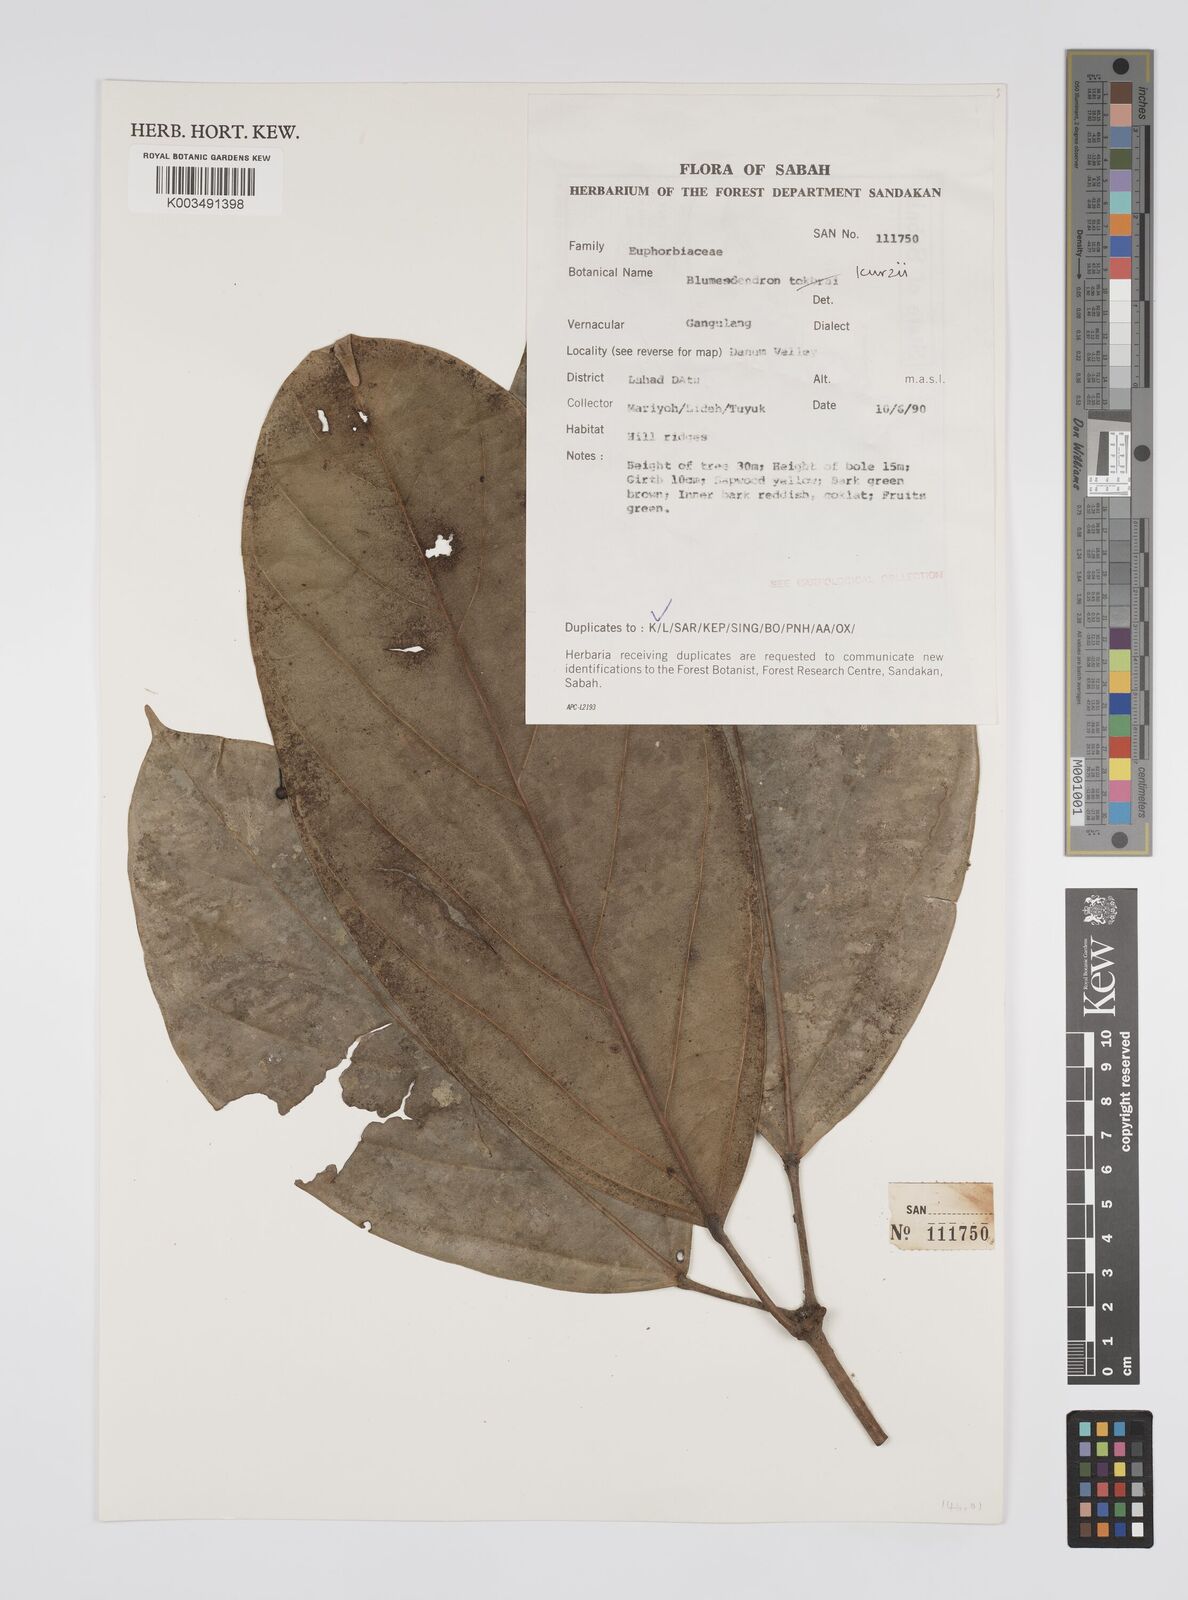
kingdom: Plantae
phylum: Tracheophyta
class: Magnoliopsida
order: Malpighiales
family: Euphorbiaceae
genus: Blumeodendron
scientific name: Blumeodendron kurzii
